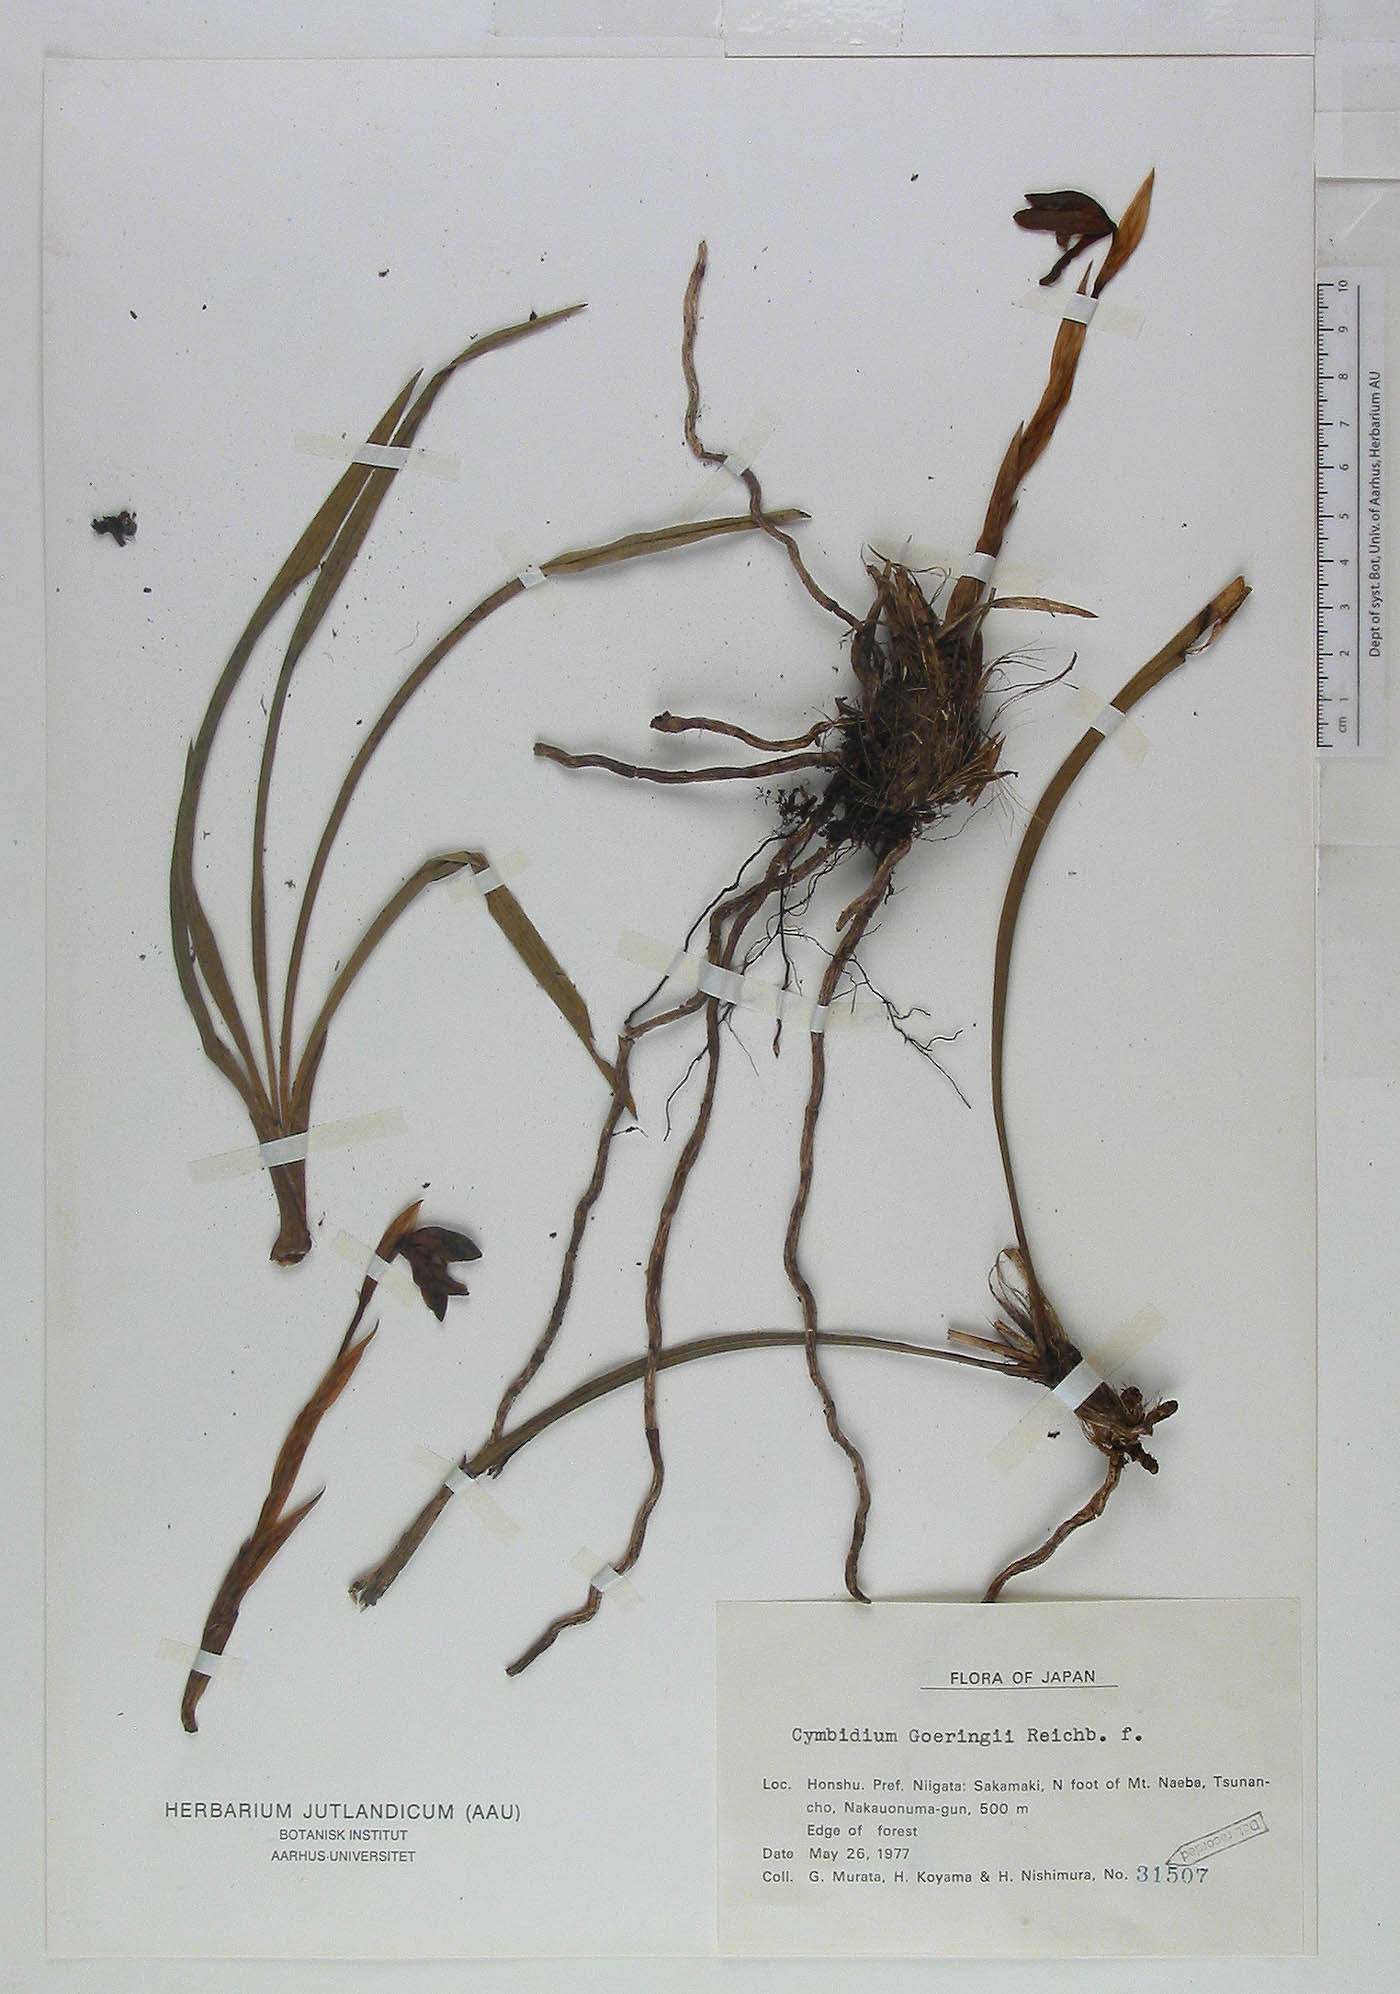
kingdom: Plantae
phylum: Tracheophyta
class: Liliopsida
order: Asparagales
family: Orchidaceae
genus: Cymbidium
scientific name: Cymbidium goeringii
